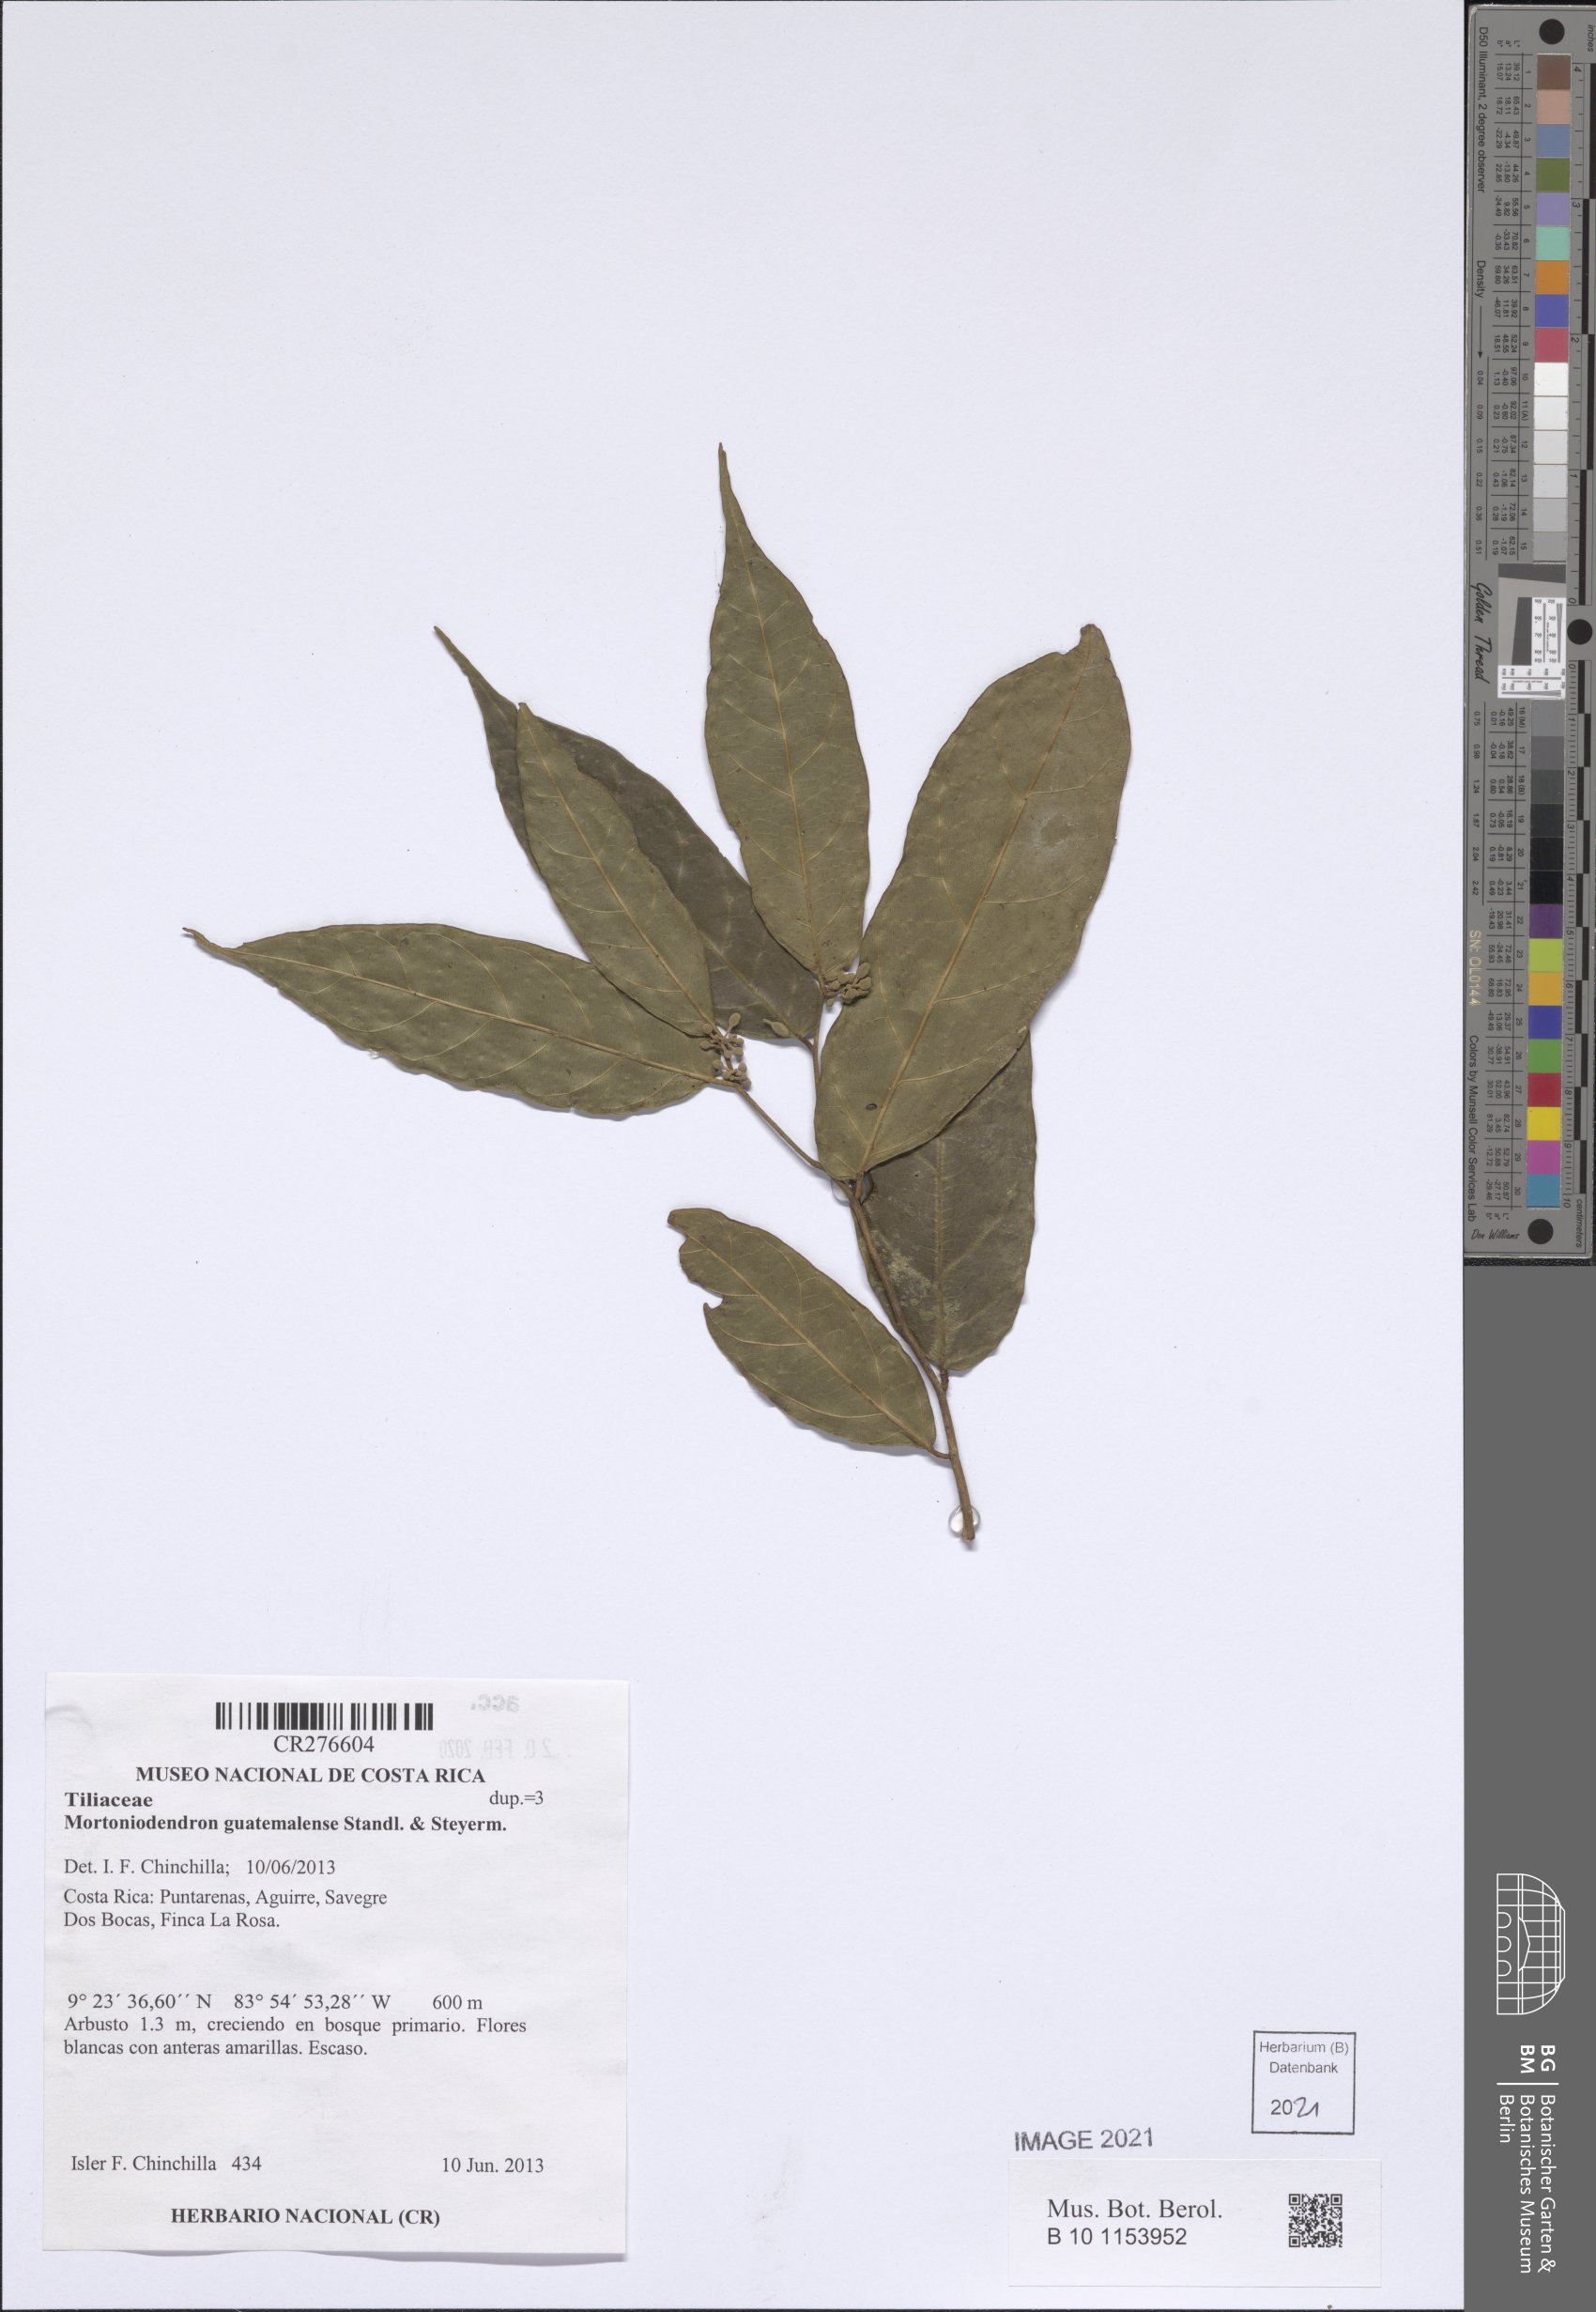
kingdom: Plantae
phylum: Tracheophyta
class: Magnoliopsida
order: Malvales
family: Malvaceae
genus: Mortoniodendron
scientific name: Mortoniodendron
